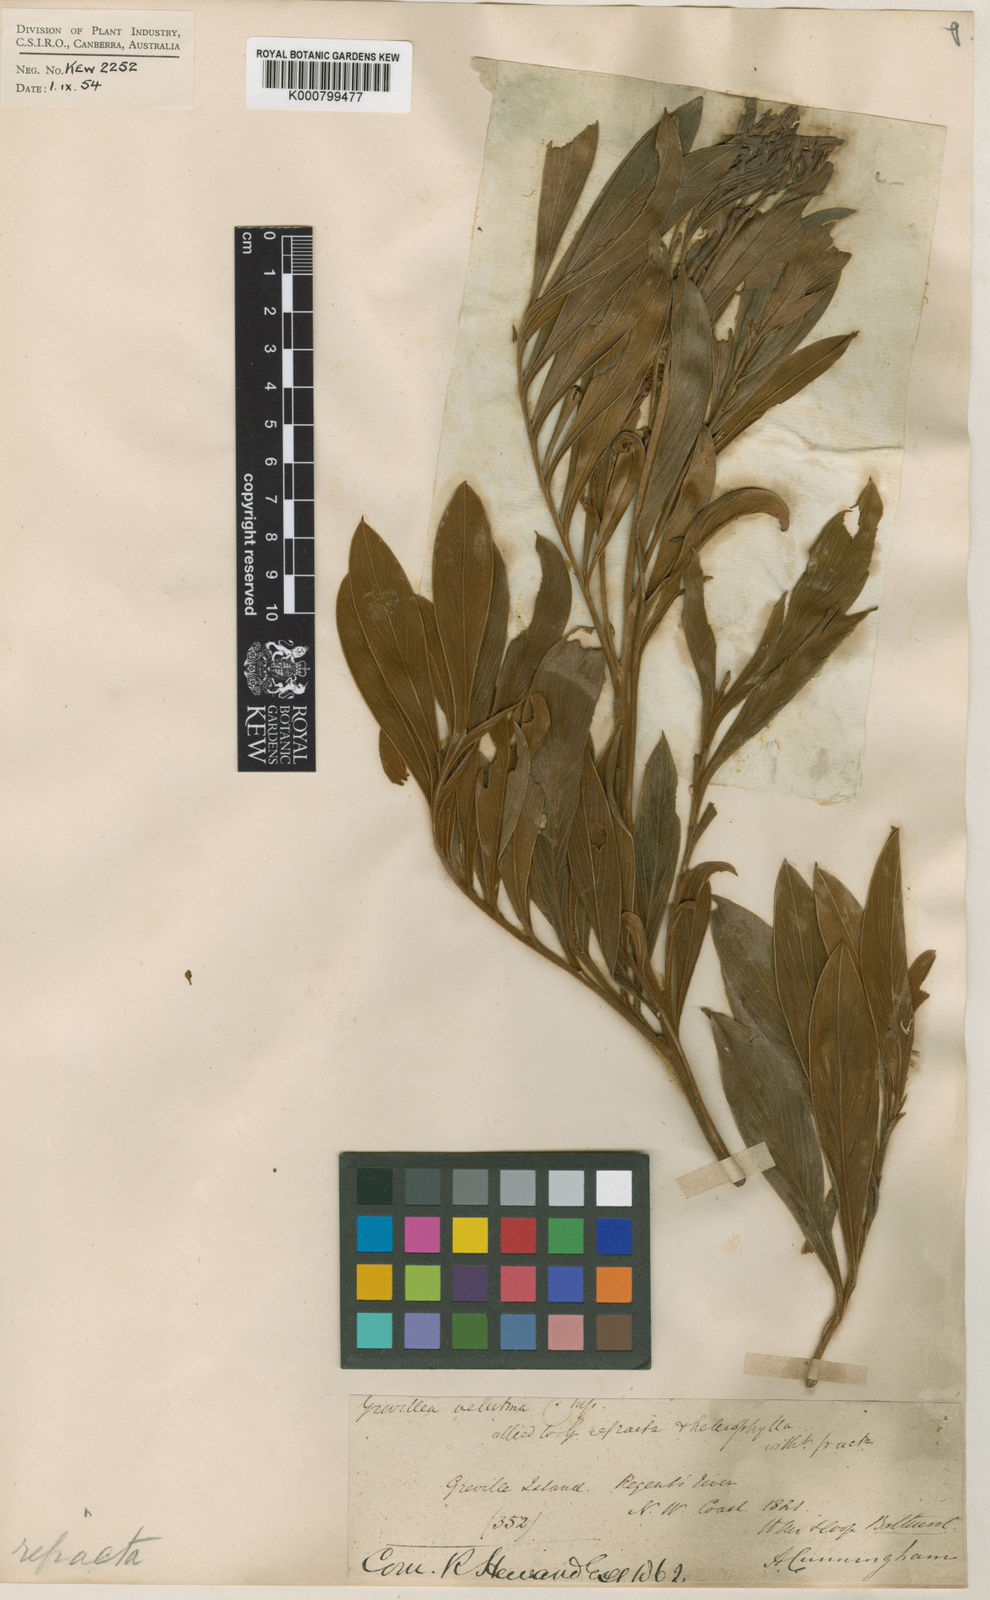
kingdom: Plantae
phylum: Tracheophyta
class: Magnoliopsida
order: Proteales
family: Proteaceae
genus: Grevillea
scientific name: Grevillea refracta
